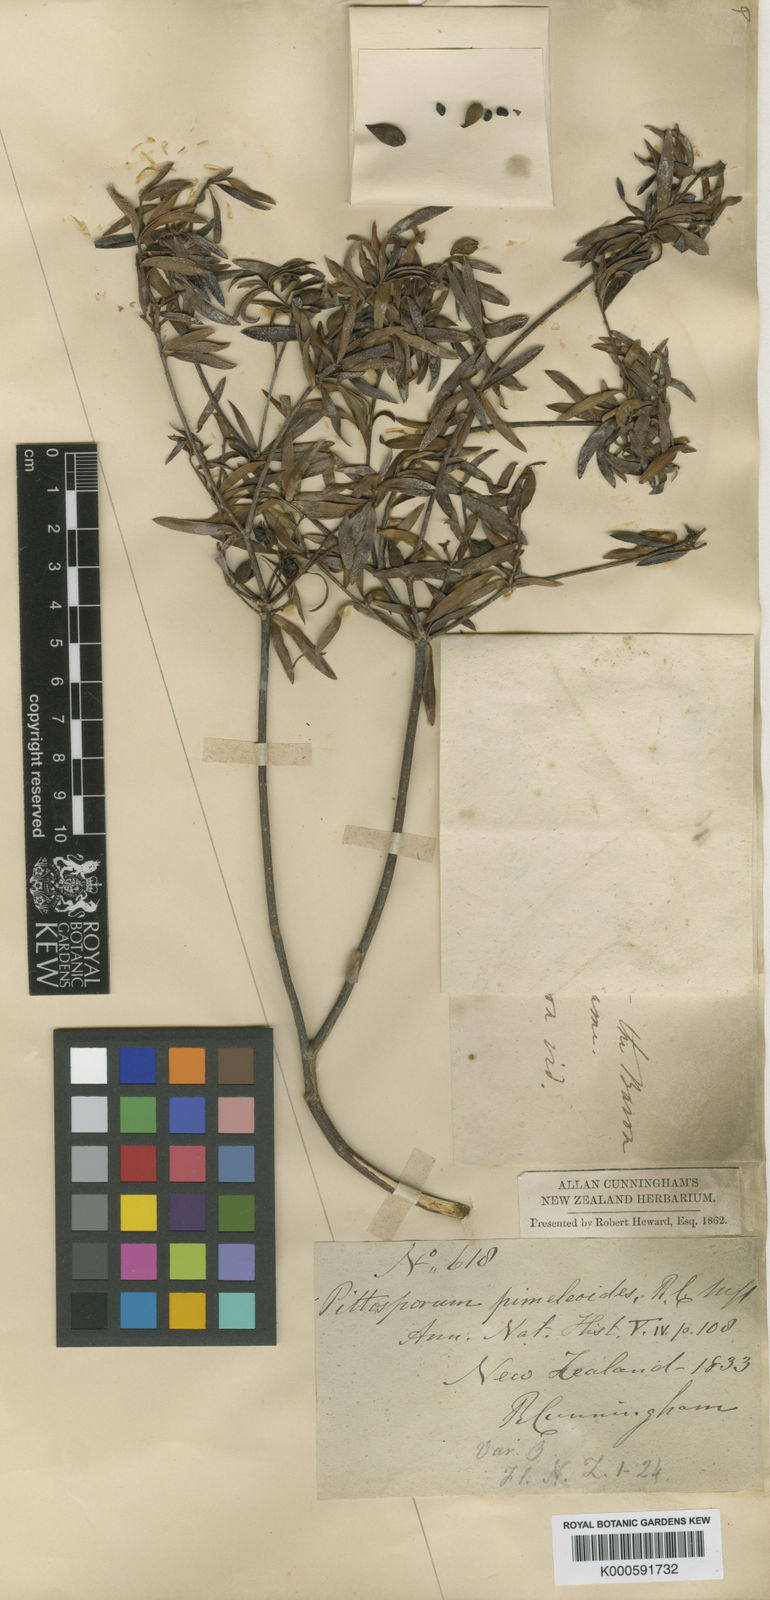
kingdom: Plantae
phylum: Tracheophyta
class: Magnoliopsida
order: Apiales
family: Pittosporaceae
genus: Pittosporum
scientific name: Pittosporum
